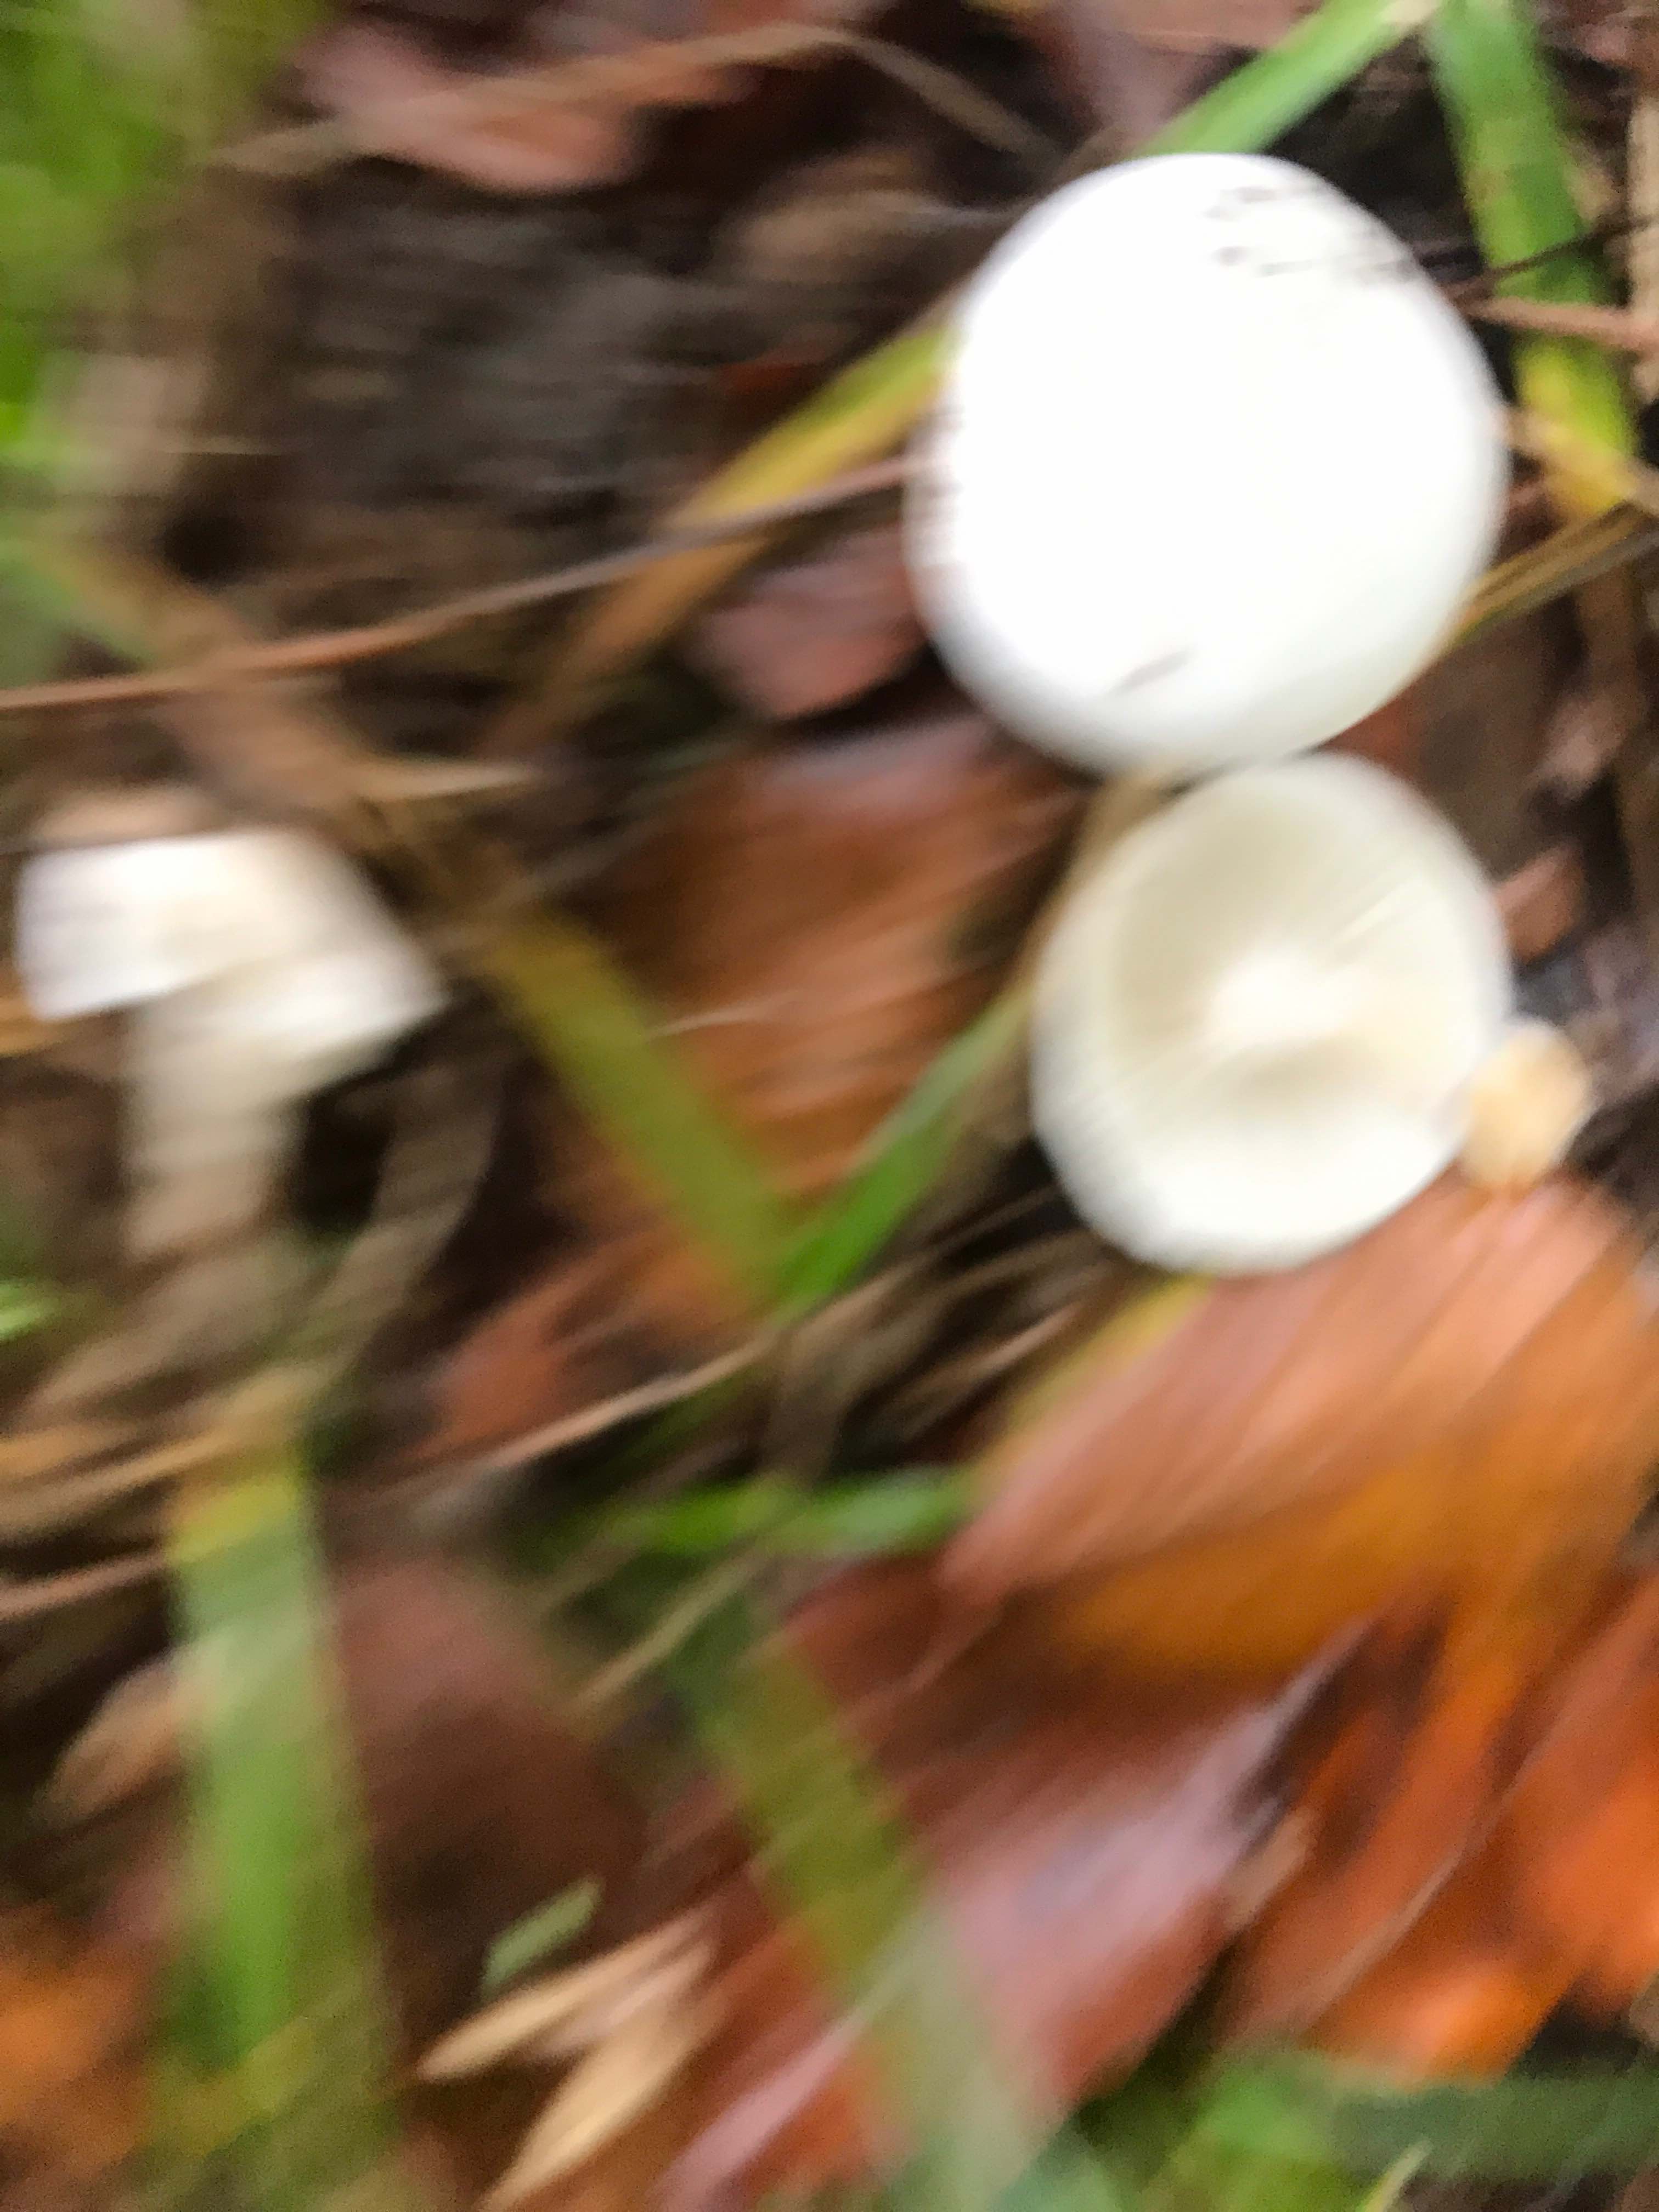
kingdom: Fungi
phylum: Basidiomycota
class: Agaricomycetes
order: Agaricales
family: Hygrophoraceae
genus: Hygrophorus
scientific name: Hygrophorus
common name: sneglehat
